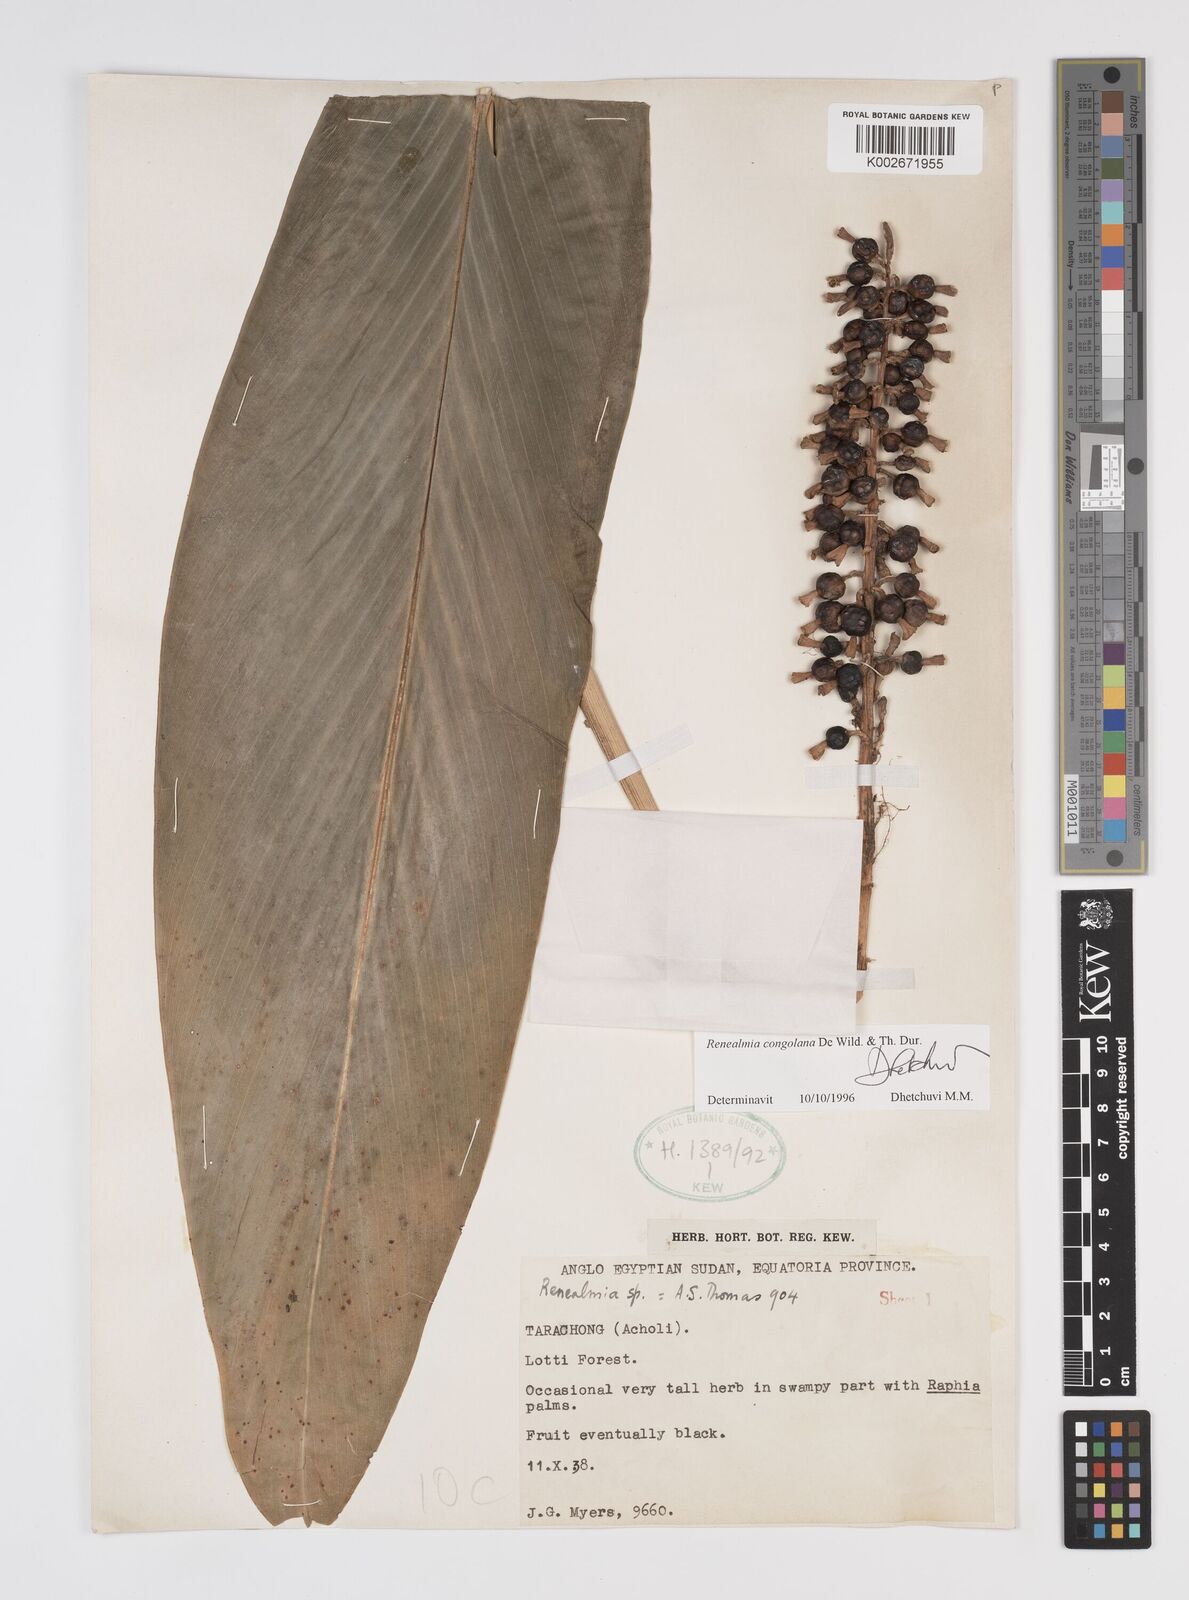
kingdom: Plantae
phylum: Tracheophyta
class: Liliopsida
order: Zingiberales
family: Zingiberaceae
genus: Renealmia
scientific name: Renealmia congolana
